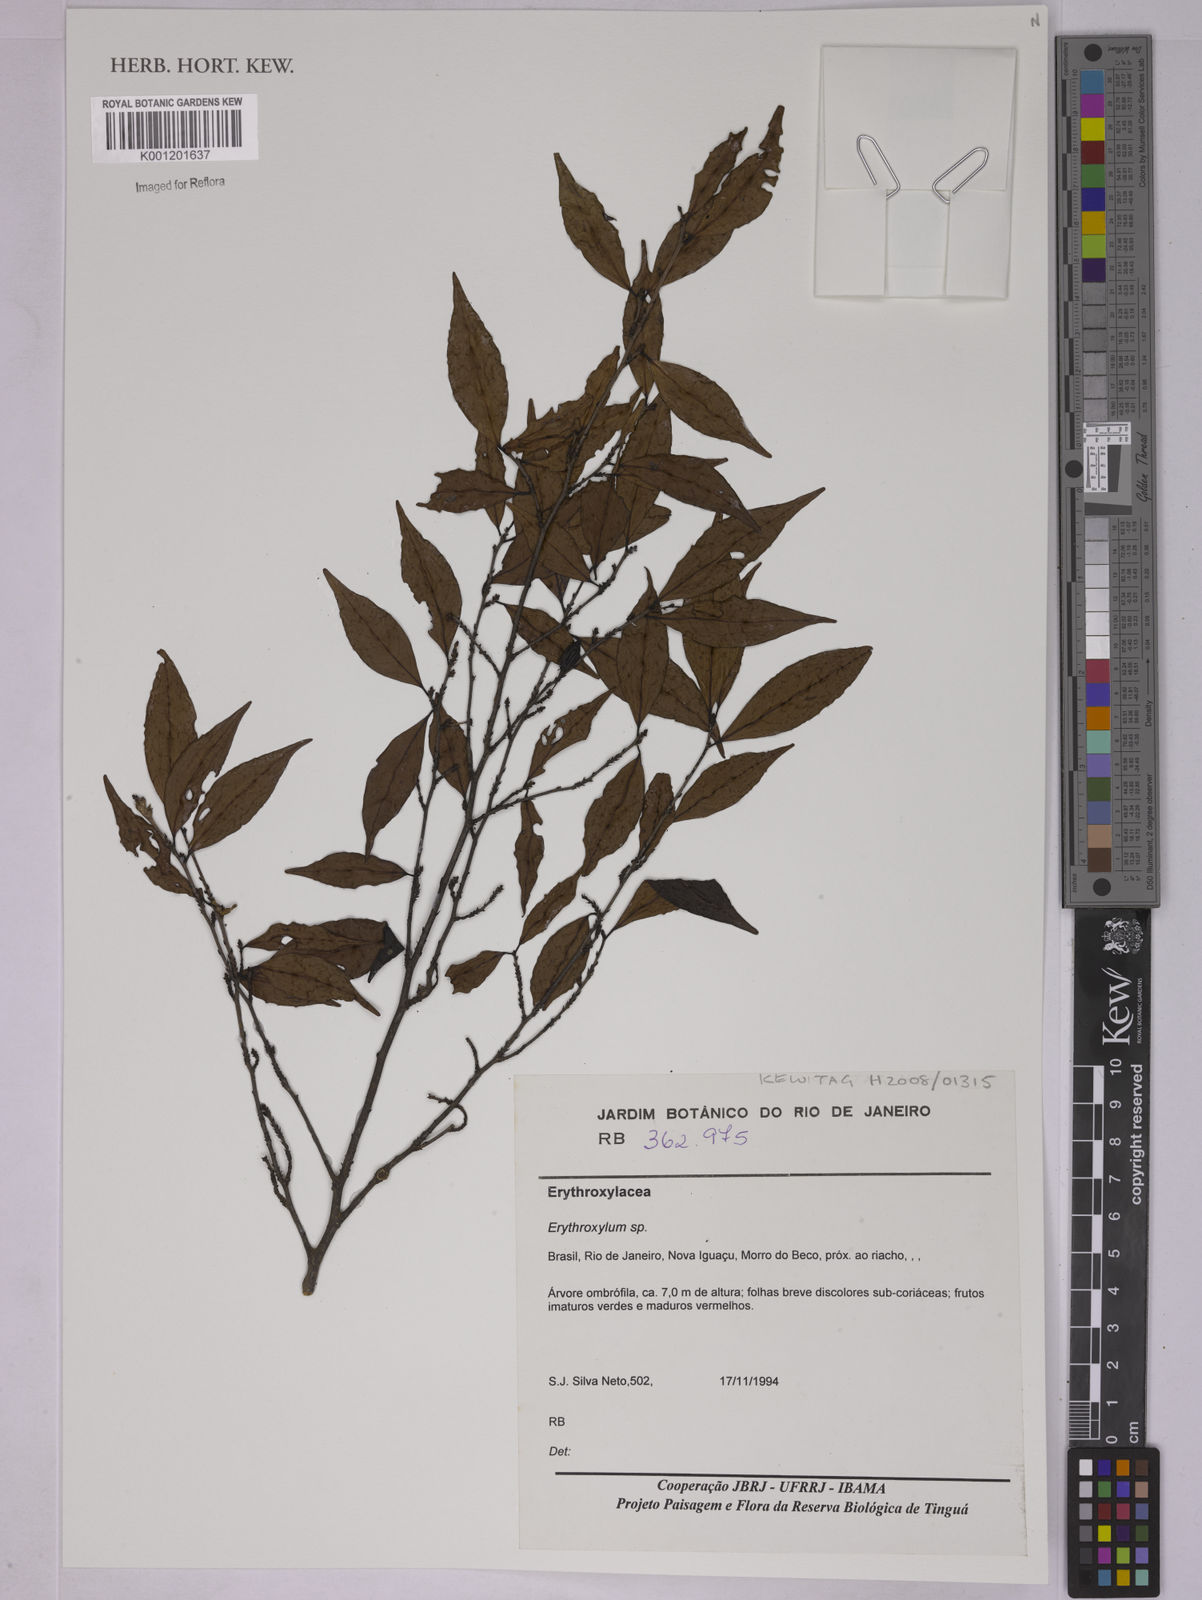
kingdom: Plantae
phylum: Tracheophyta
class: Magnoliopsida
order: Malpighiales
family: Erythroxylaceae
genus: Erythroxylum
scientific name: Erythroxylum
